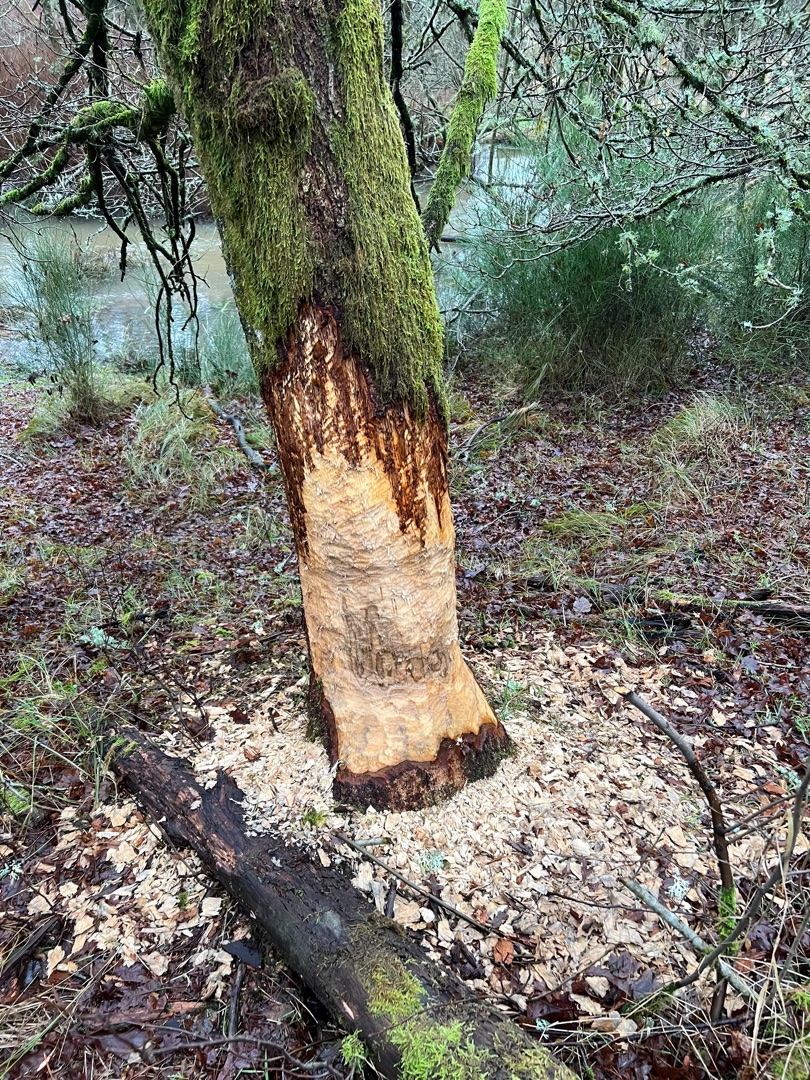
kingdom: Animalia
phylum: Chordata
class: Mammalia
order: Rodentia
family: Castoridae
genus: Castor
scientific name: Castor fiber
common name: Bæver
